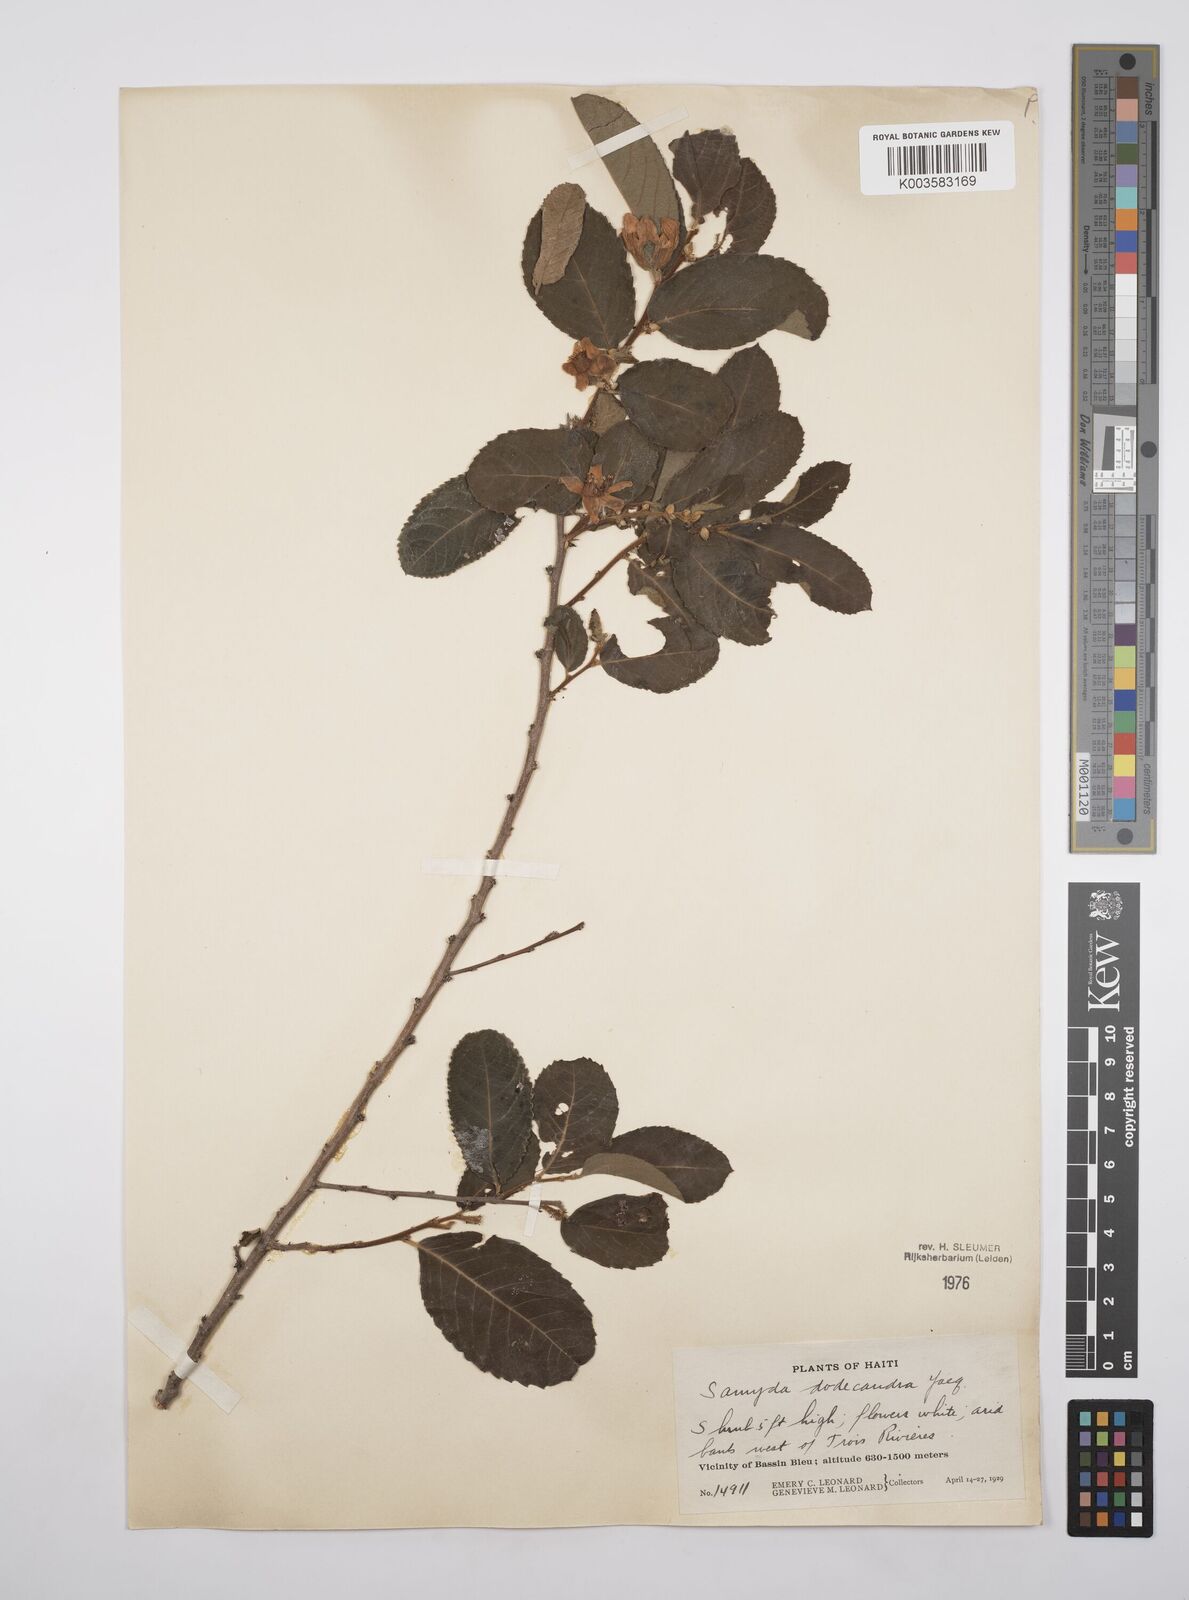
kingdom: Plantae
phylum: Tracheophyta
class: Magnoliopsida
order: Malpighiales
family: Salicaceae
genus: Casearia
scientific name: Casearia dodecandra
